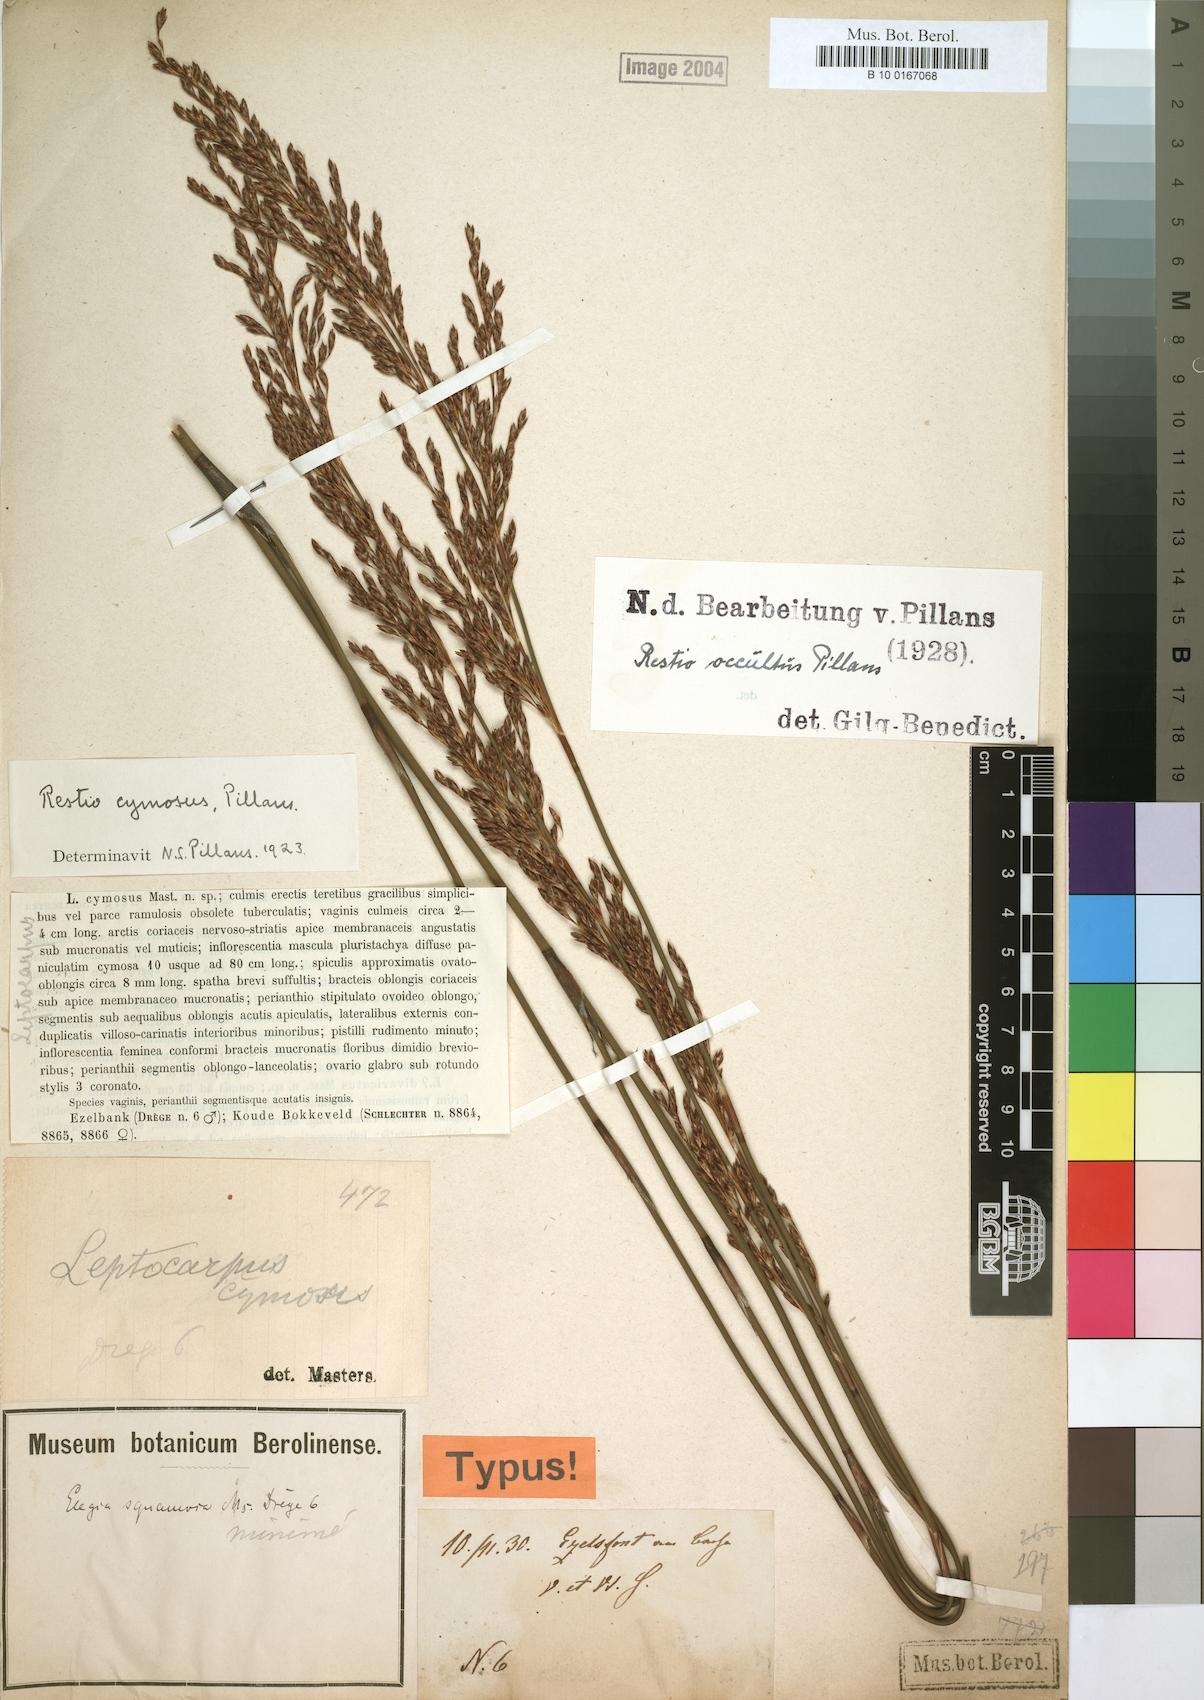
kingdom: Plantae
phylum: Tracheophyta
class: Liliopsida
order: Poales
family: Restionaceae
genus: Restio
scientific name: Restio occultus
